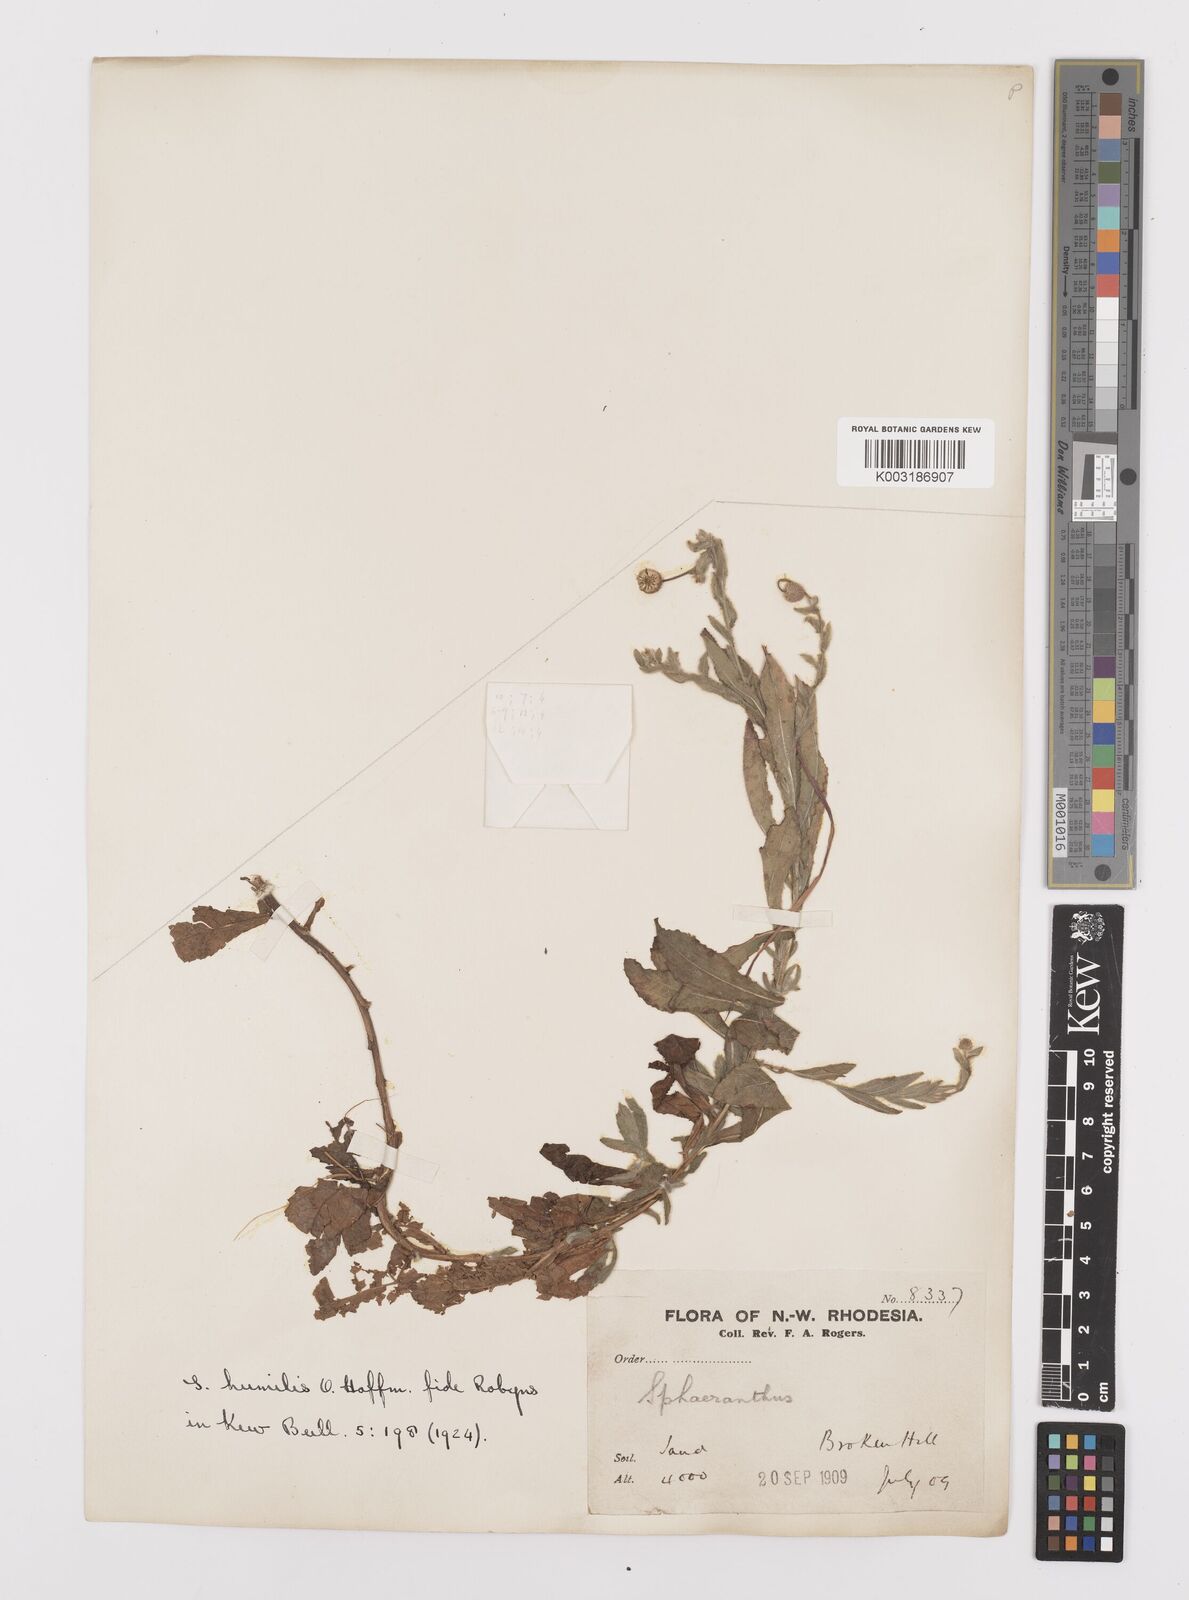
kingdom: Plantae
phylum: Tracheophyta
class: Magnoliopsida
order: Asterales
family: Asteraceae
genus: Sphaeranthus
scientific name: Sphaeranthus flexuosus
